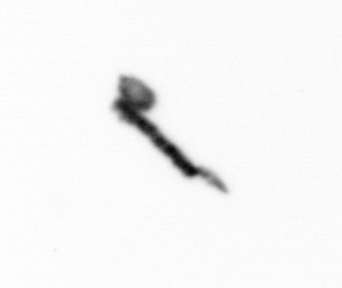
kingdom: Animalia
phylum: Arthropoda
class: Copepoda
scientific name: Copepoda
